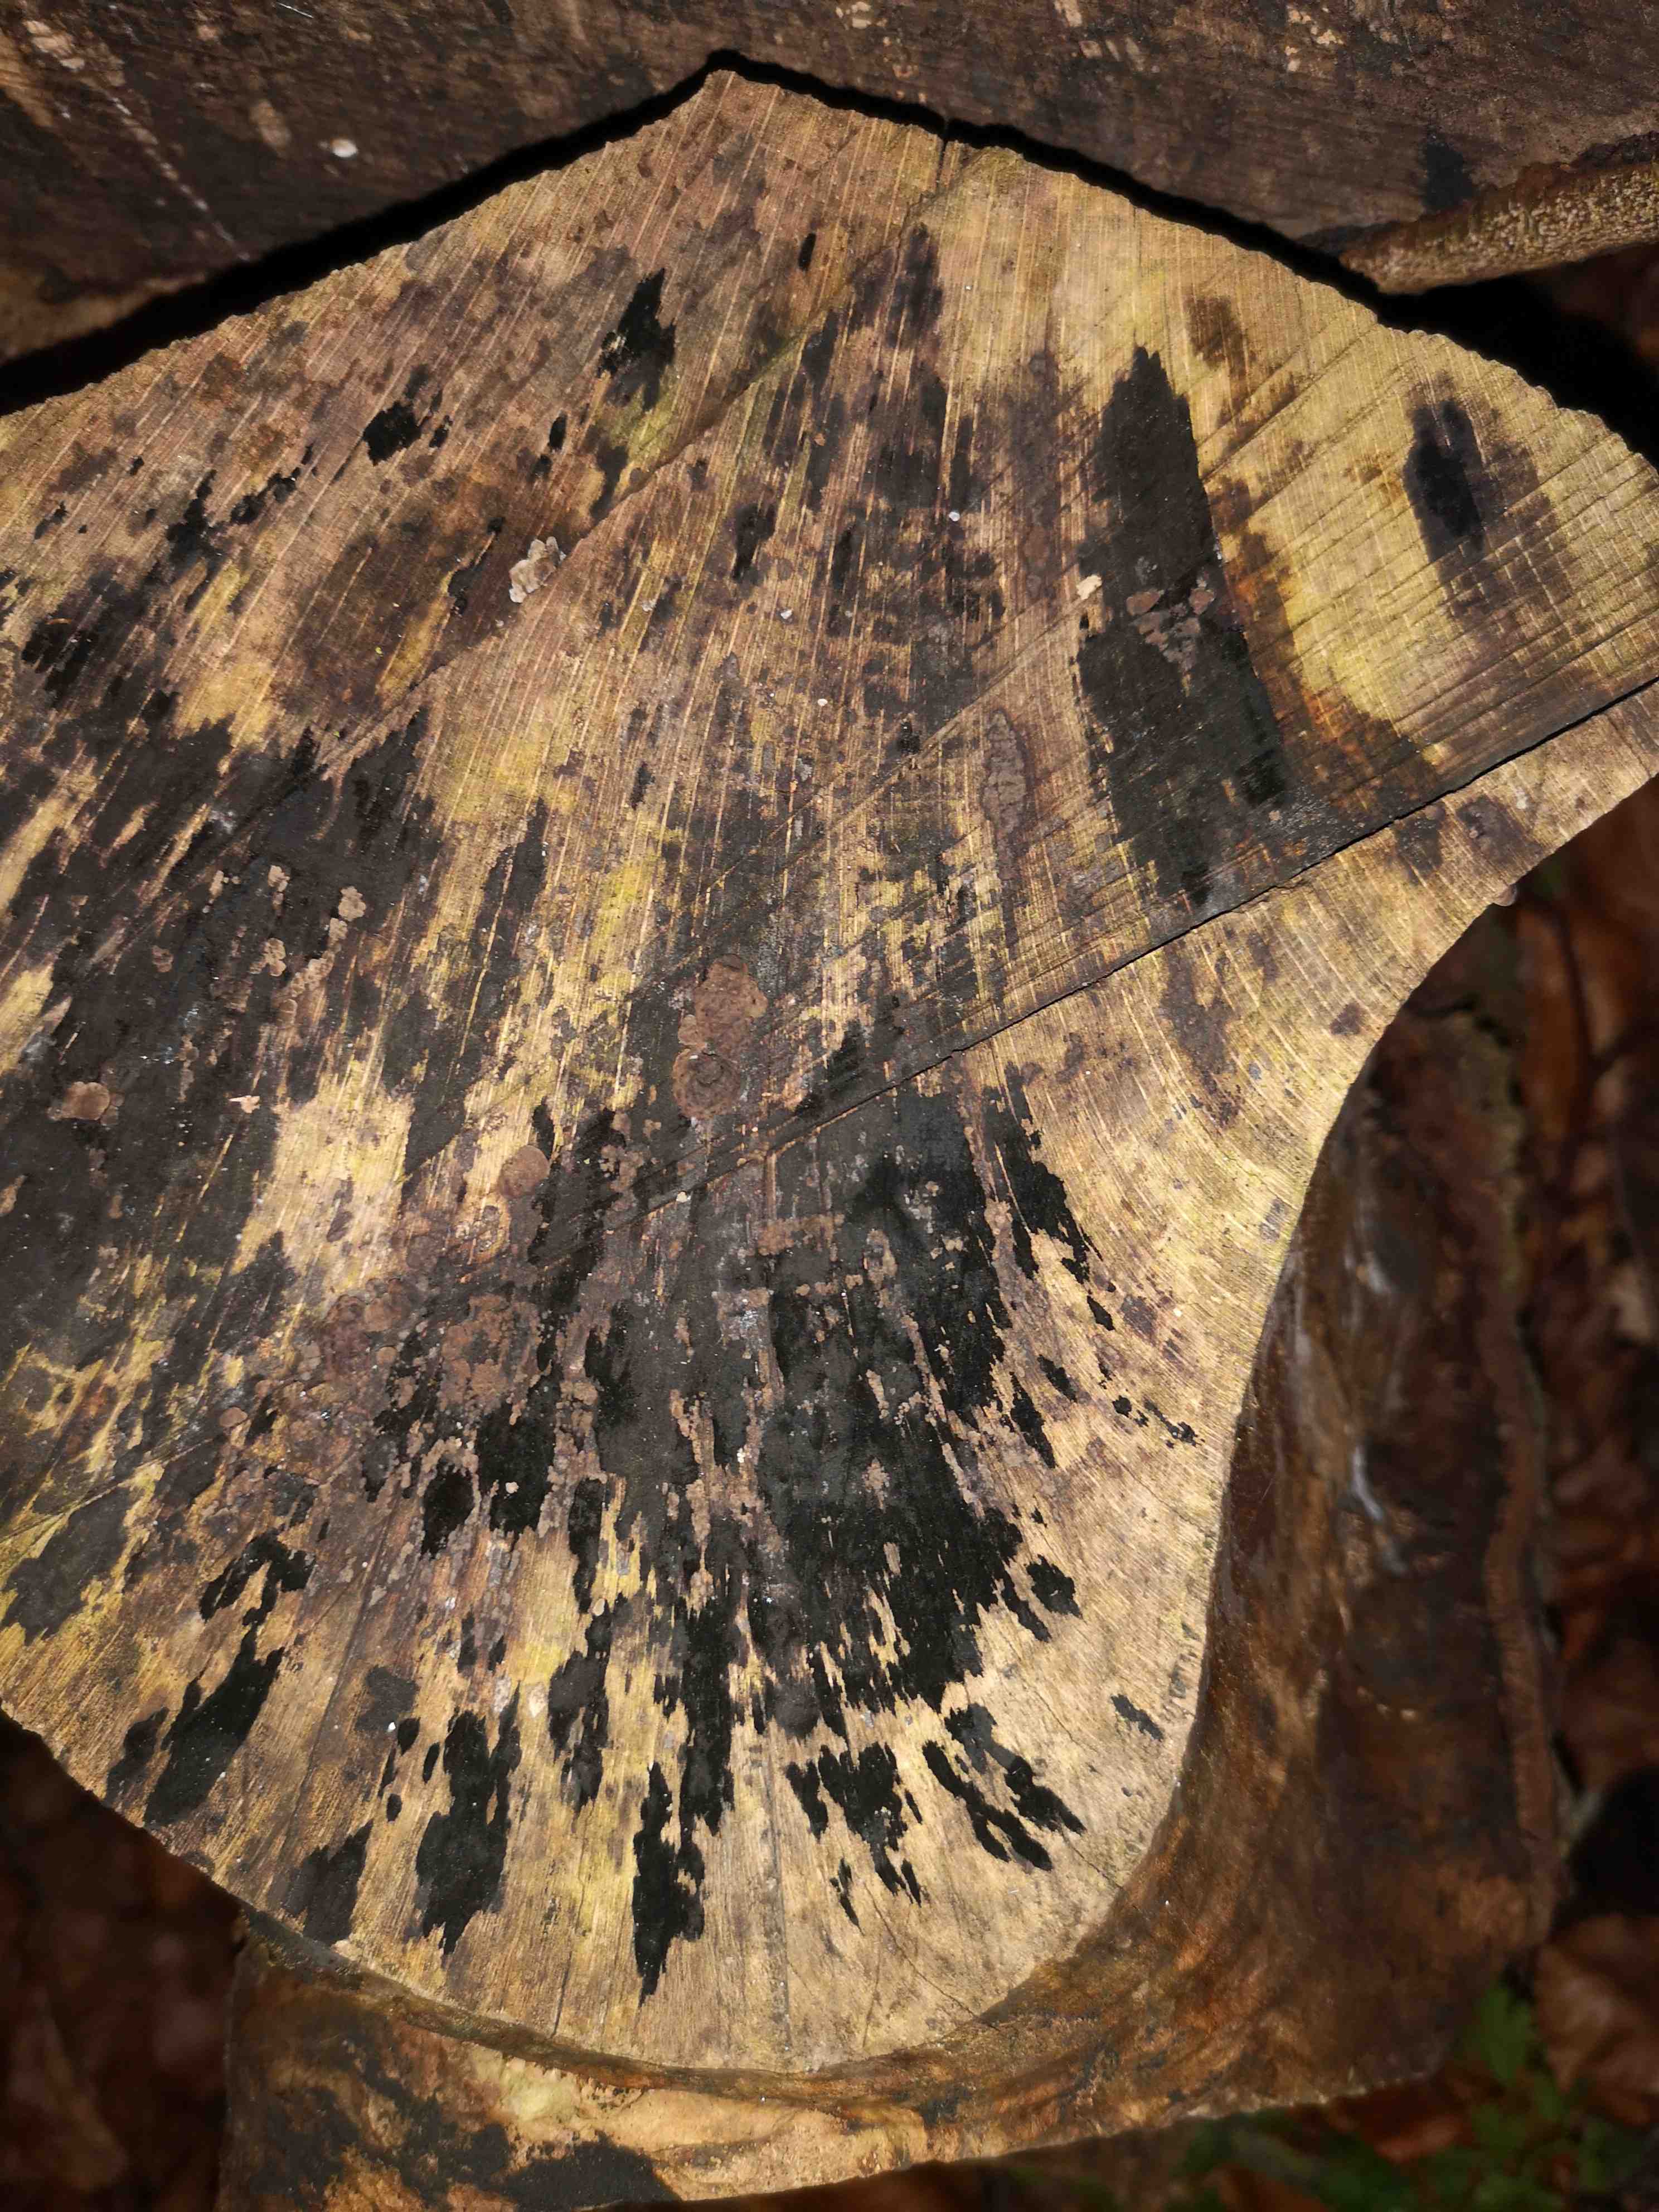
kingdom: Fungi
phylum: Ascomycota
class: Leotiomycetes
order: Helotiales
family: Helotiaceae
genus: Bispora
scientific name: Bispora pallescens
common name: måtte-snitskive
